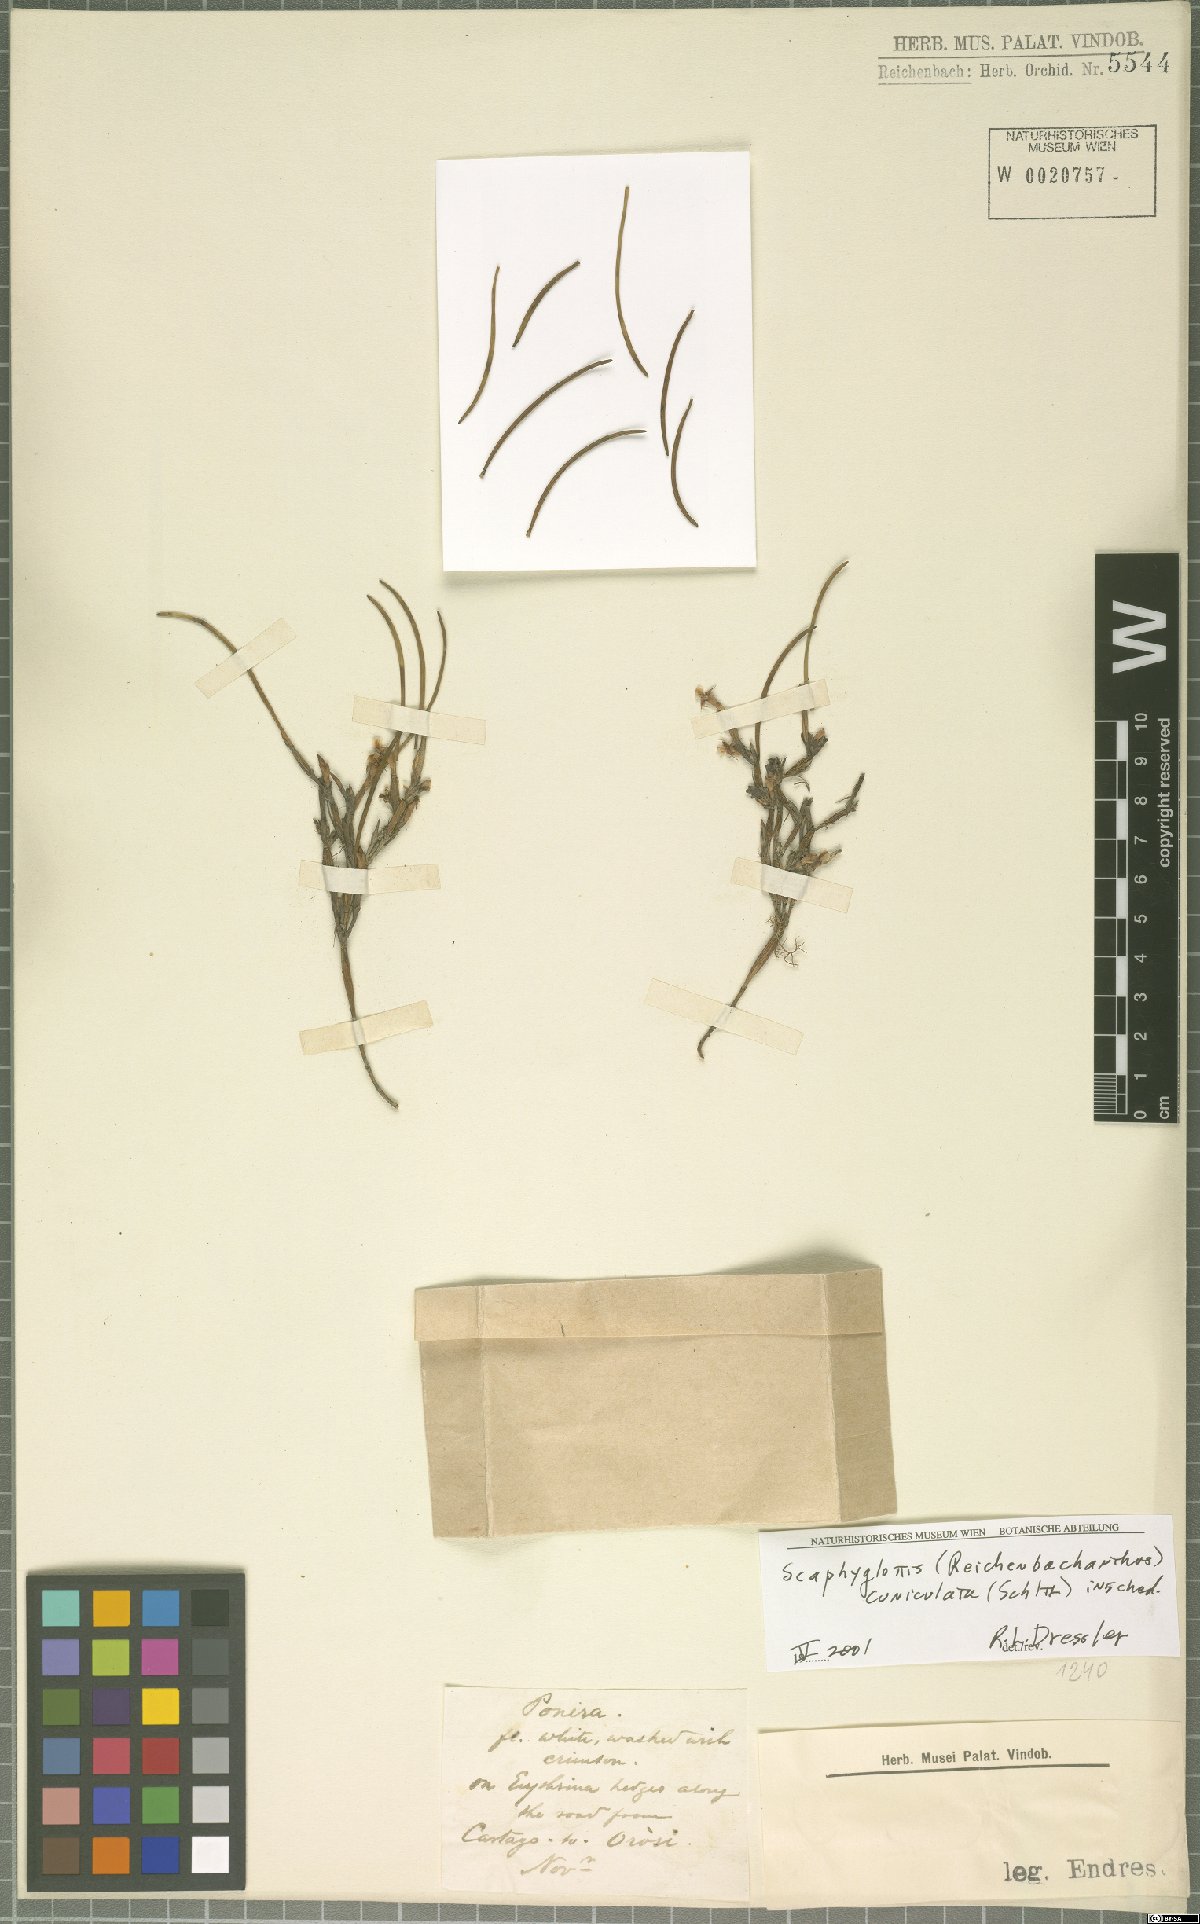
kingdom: Plantae
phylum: Tracheophyta
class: Liliopsida
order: Asparagales
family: Orchidaceae
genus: Scaphyglottis
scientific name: Scaphyglottis cuniculata
